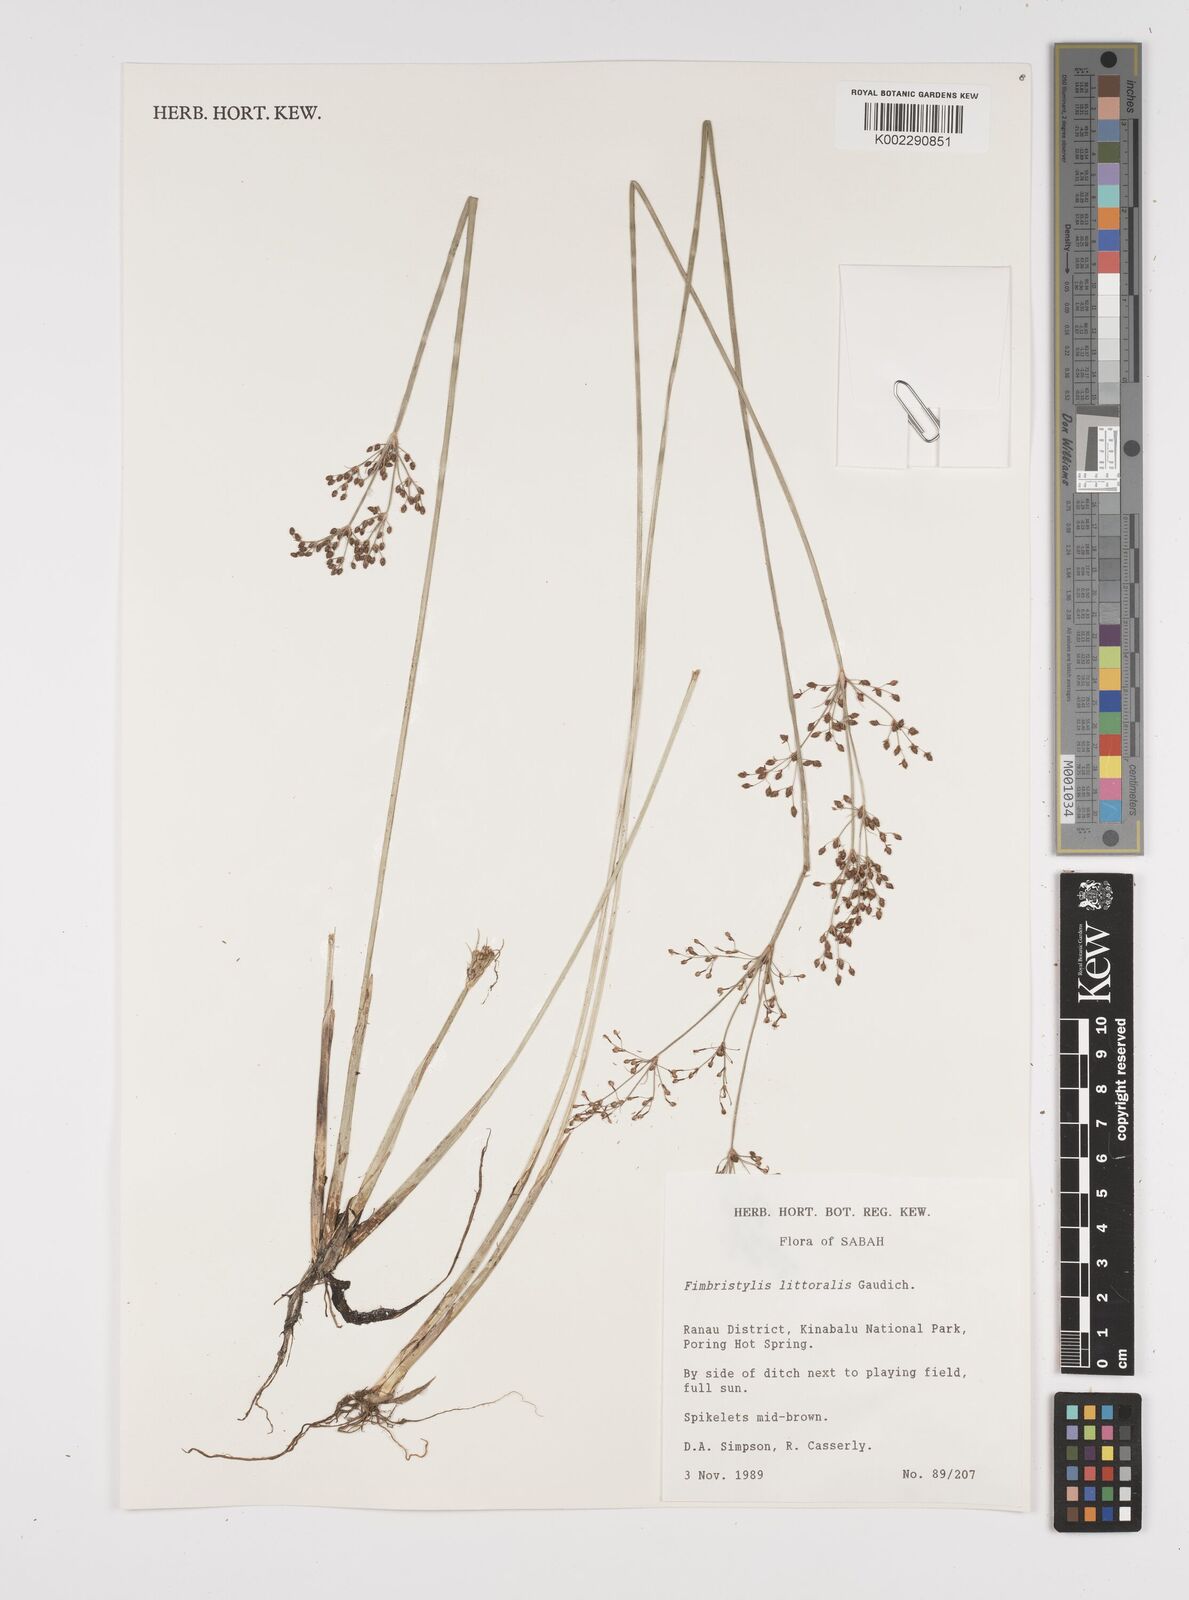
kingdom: Plantae
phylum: Tracheophyta
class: Liliopsida
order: Poales
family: Cyperaceae
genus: Fimbristylis
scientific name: Fimbristylis littoralis
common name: Fimbry
